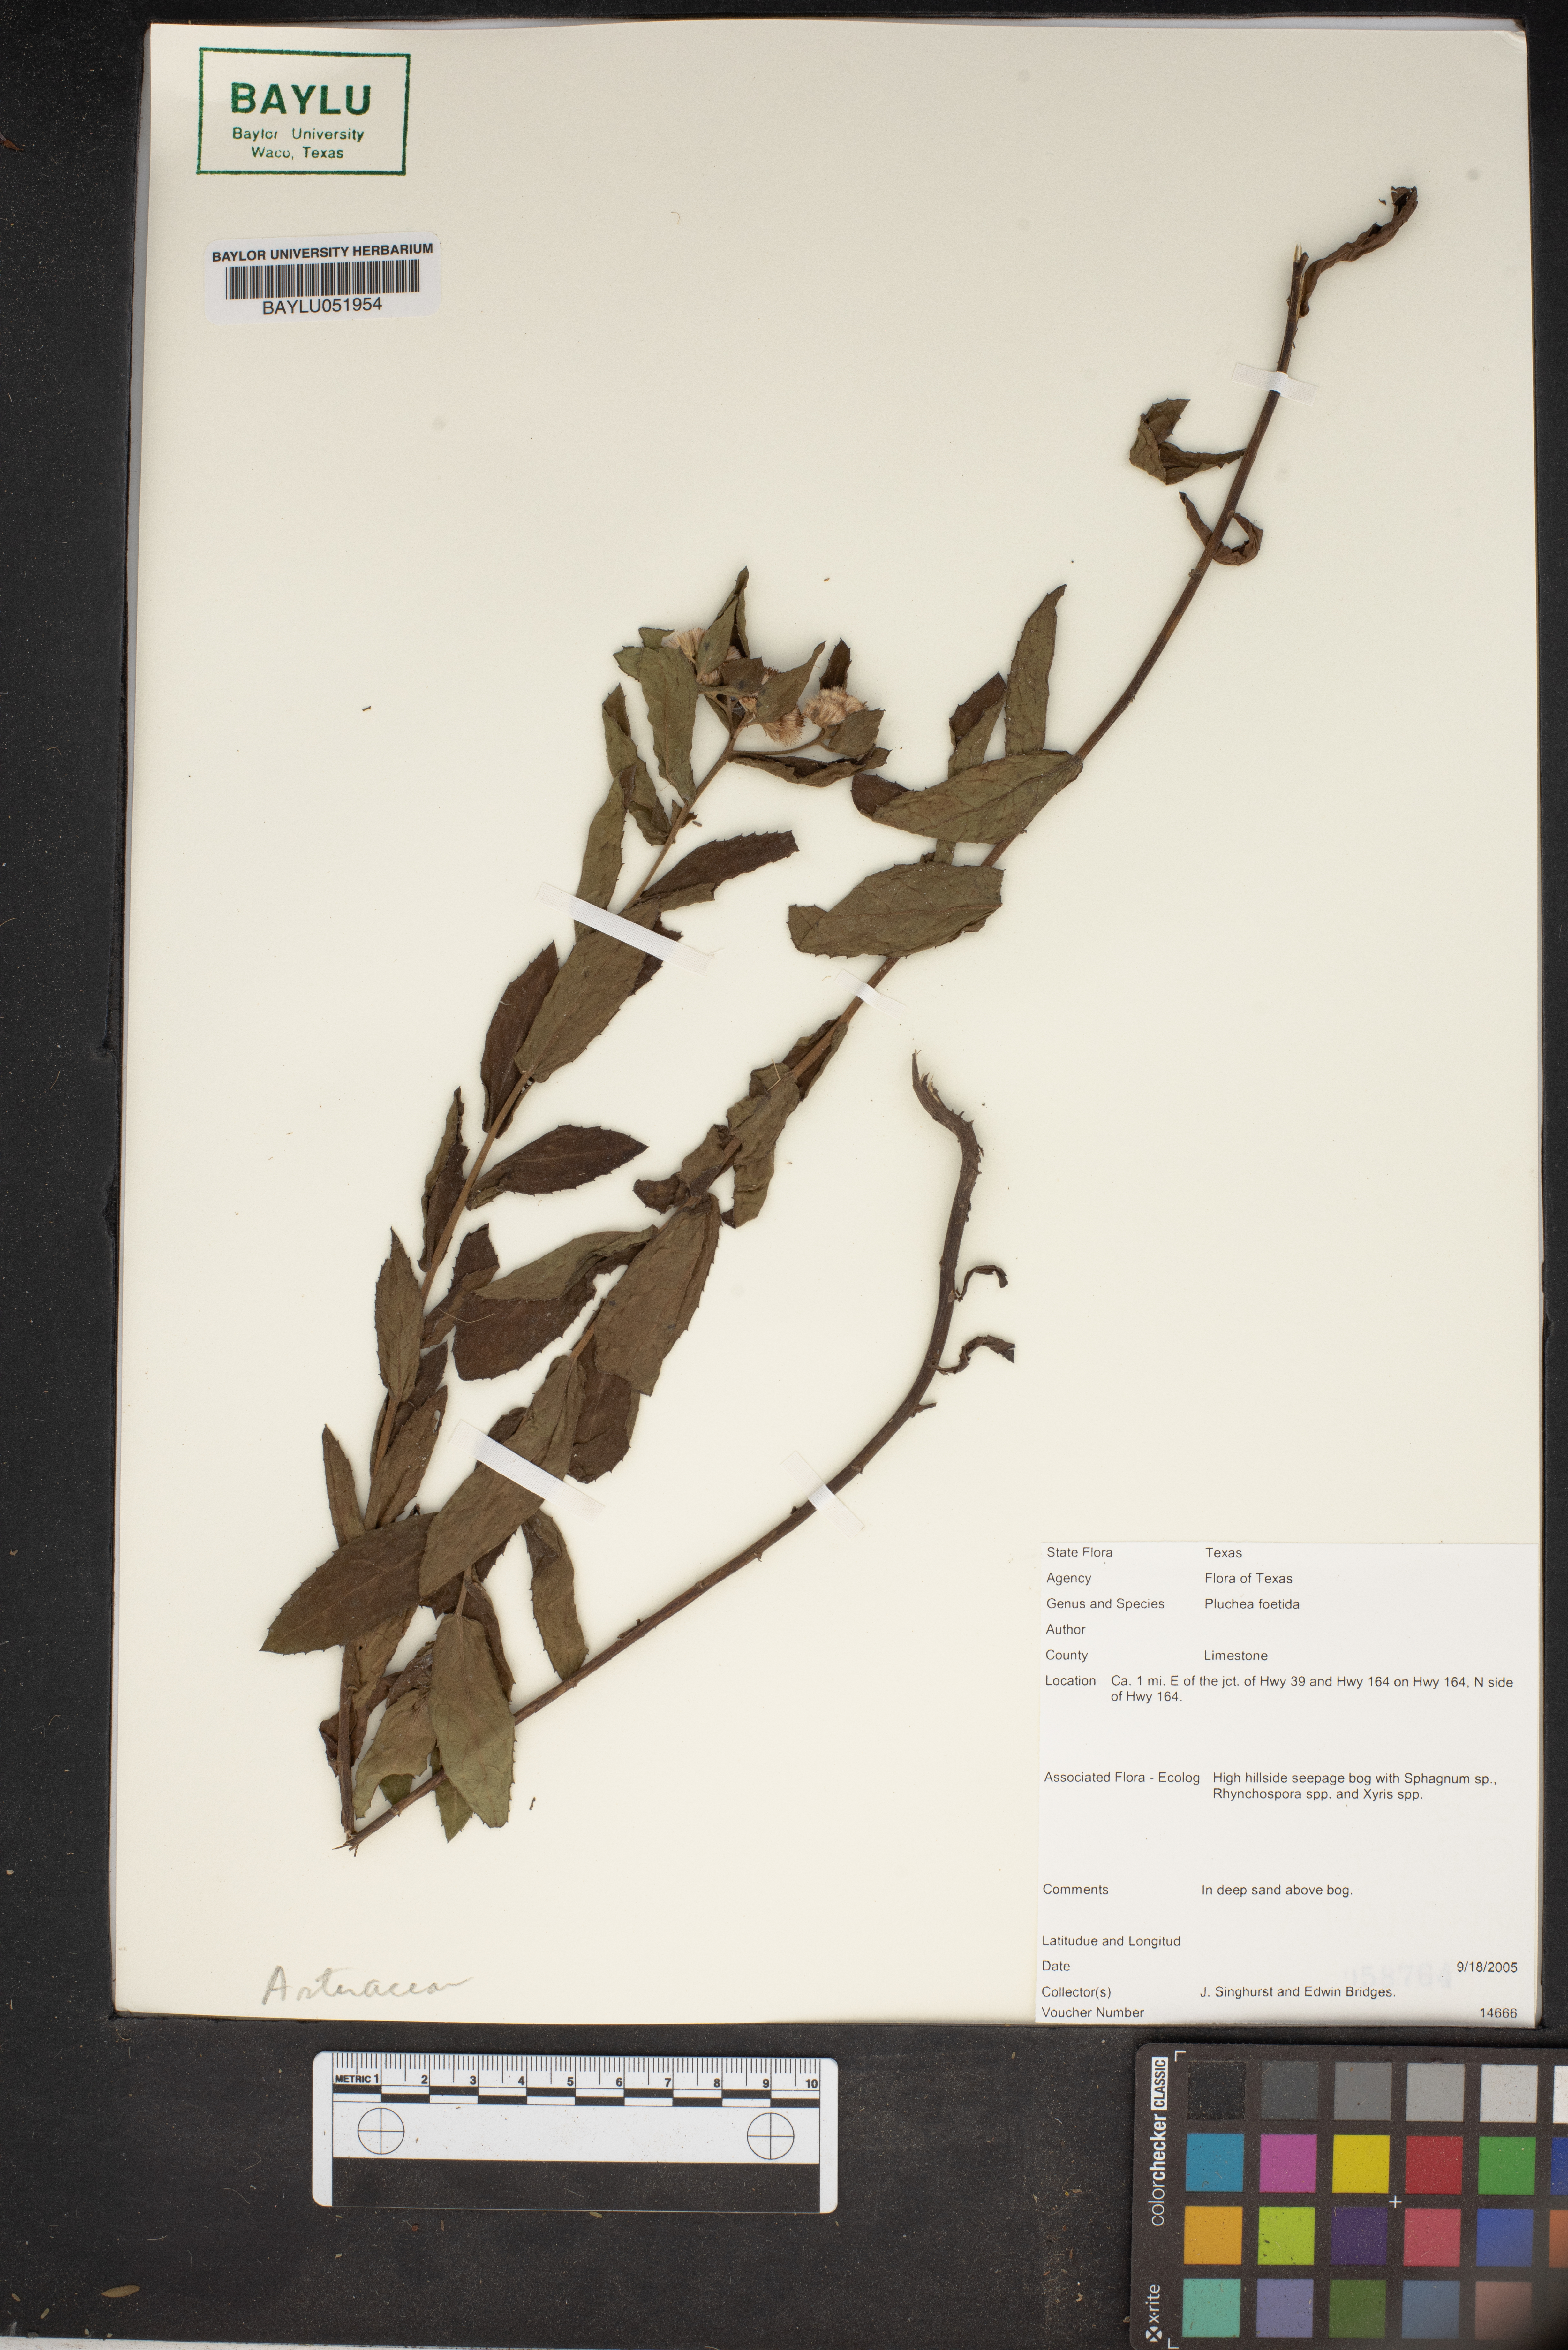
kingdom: Plantae
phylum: Tracheophyta
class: Magnoliopsida
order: Asterales
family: Asteraceae
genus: Pluchea
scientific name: Pluchea foetida
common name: Stinking camphorweed
